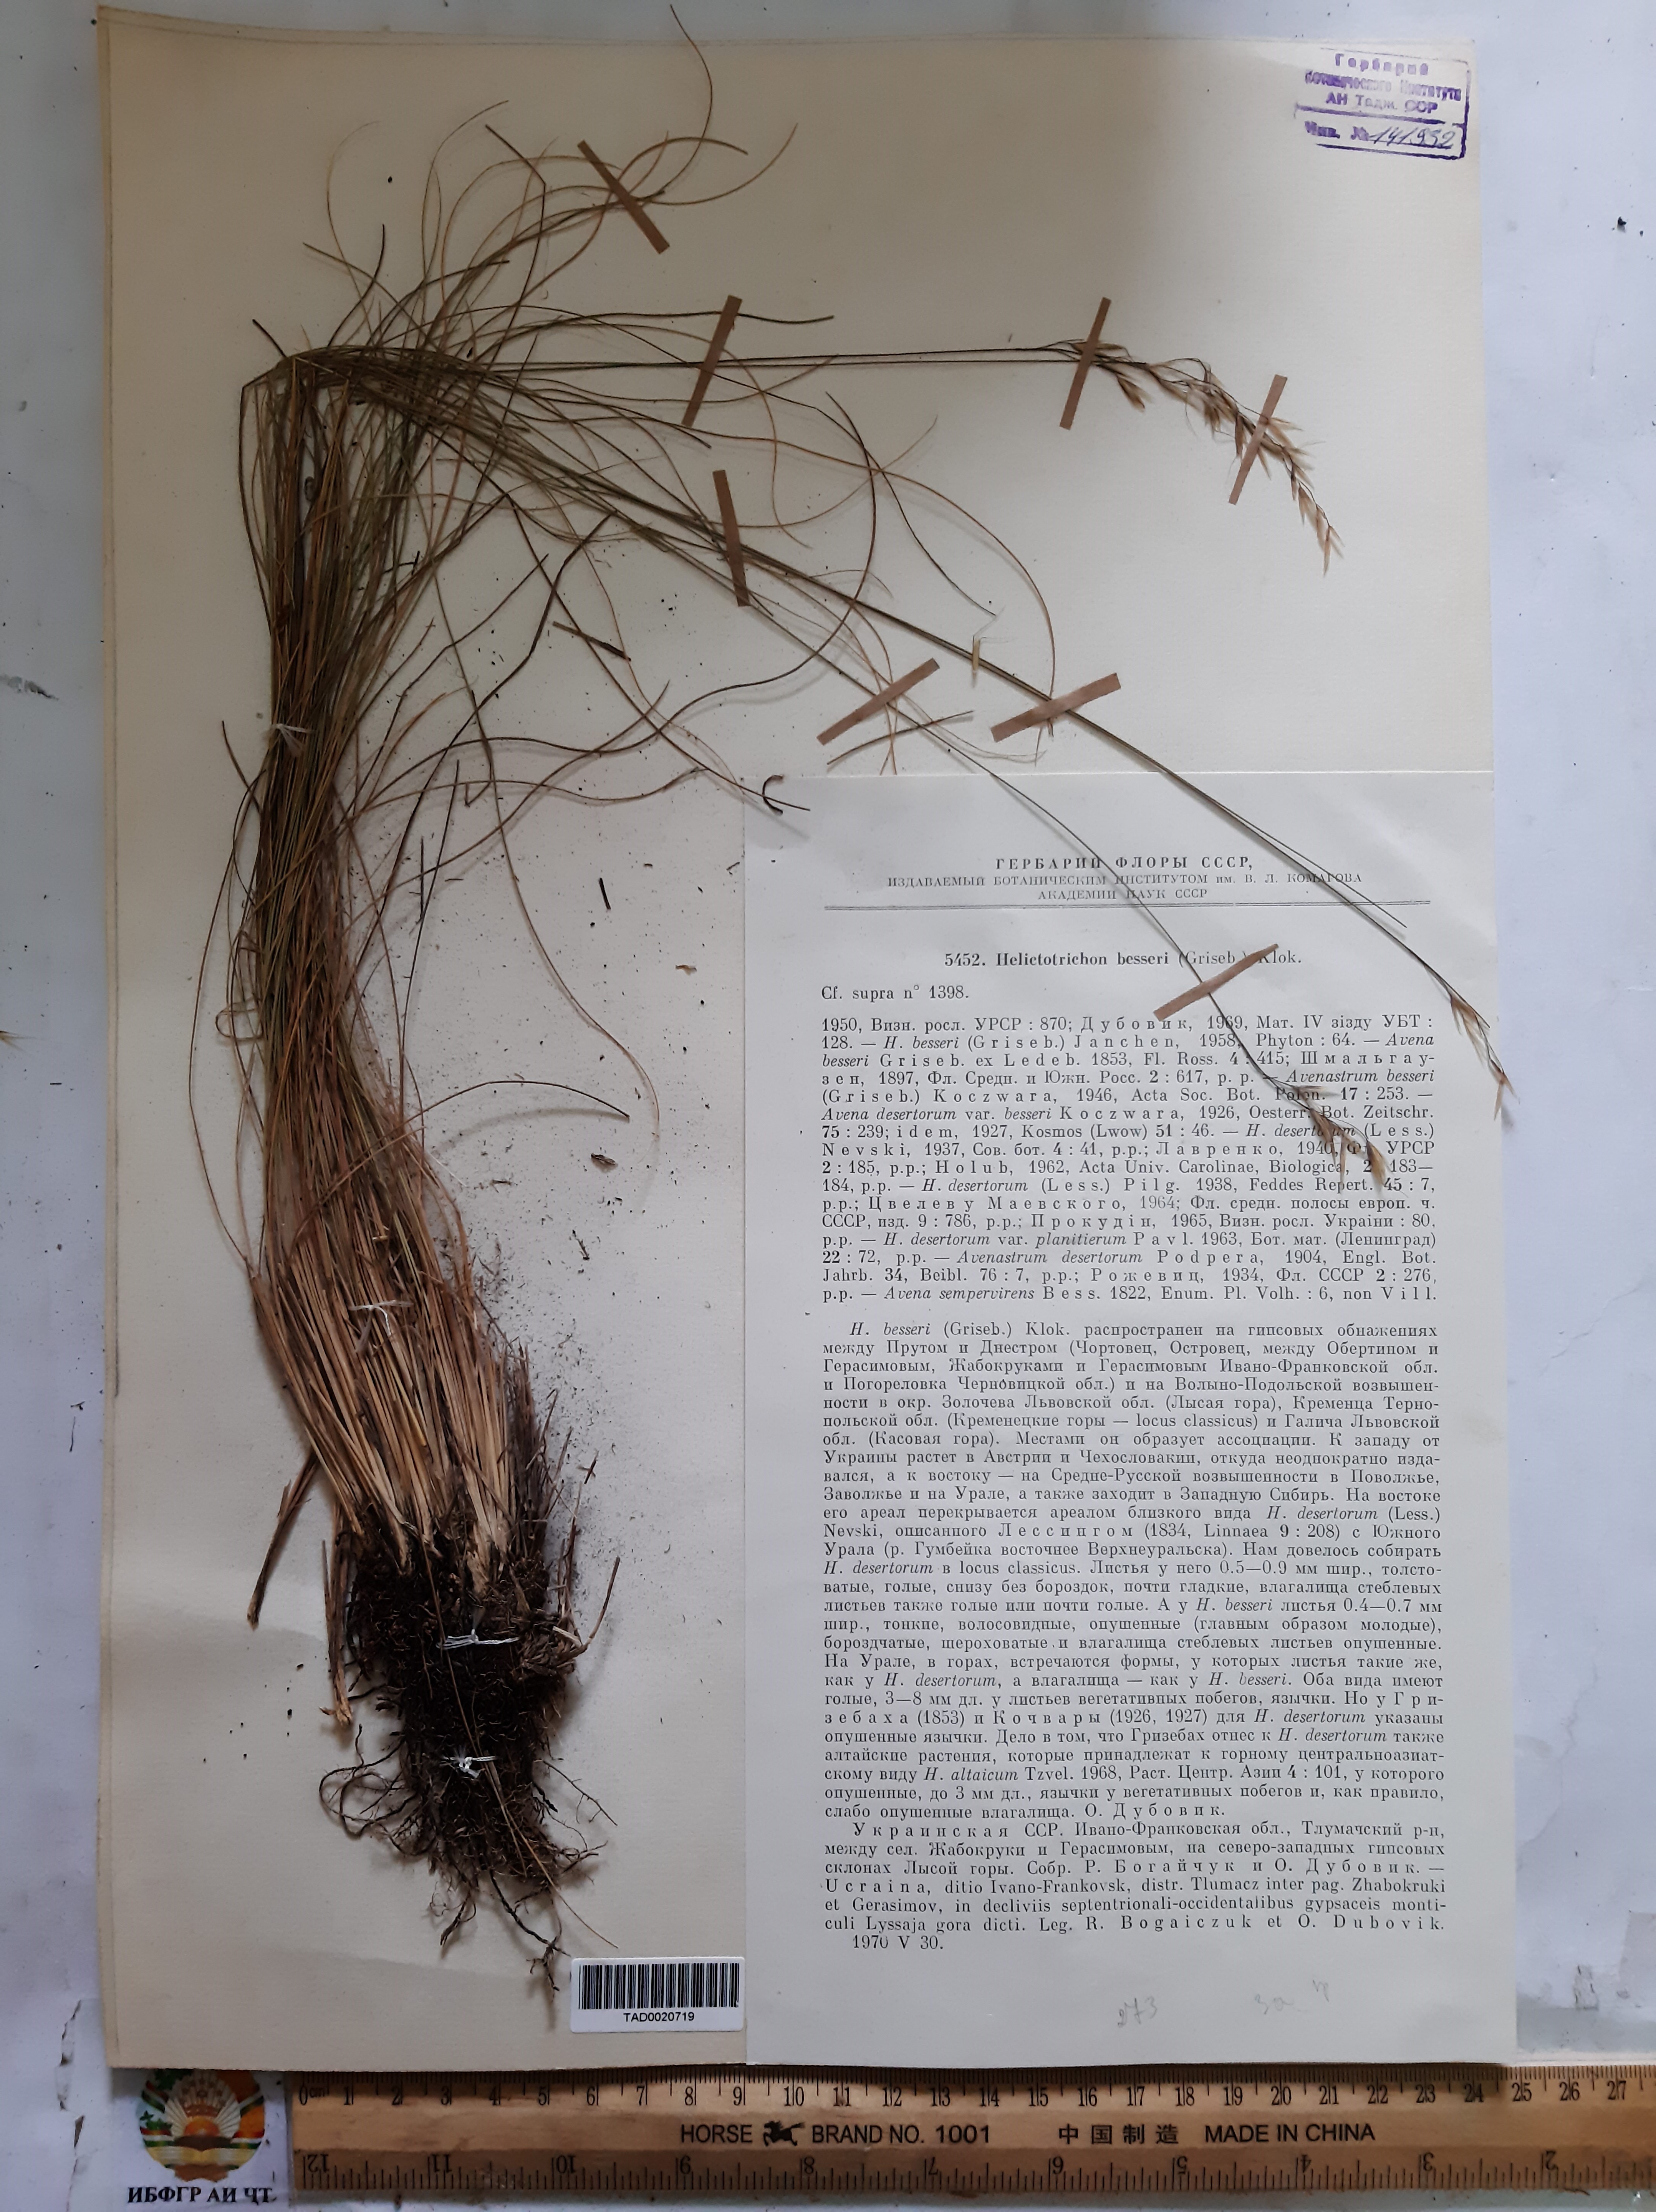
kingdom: Plantae
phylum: Tracheophyta
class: Liliopsida
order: Poales
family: Poaceae
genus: Helictotrichon
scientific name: Helictotrichon desertorum
